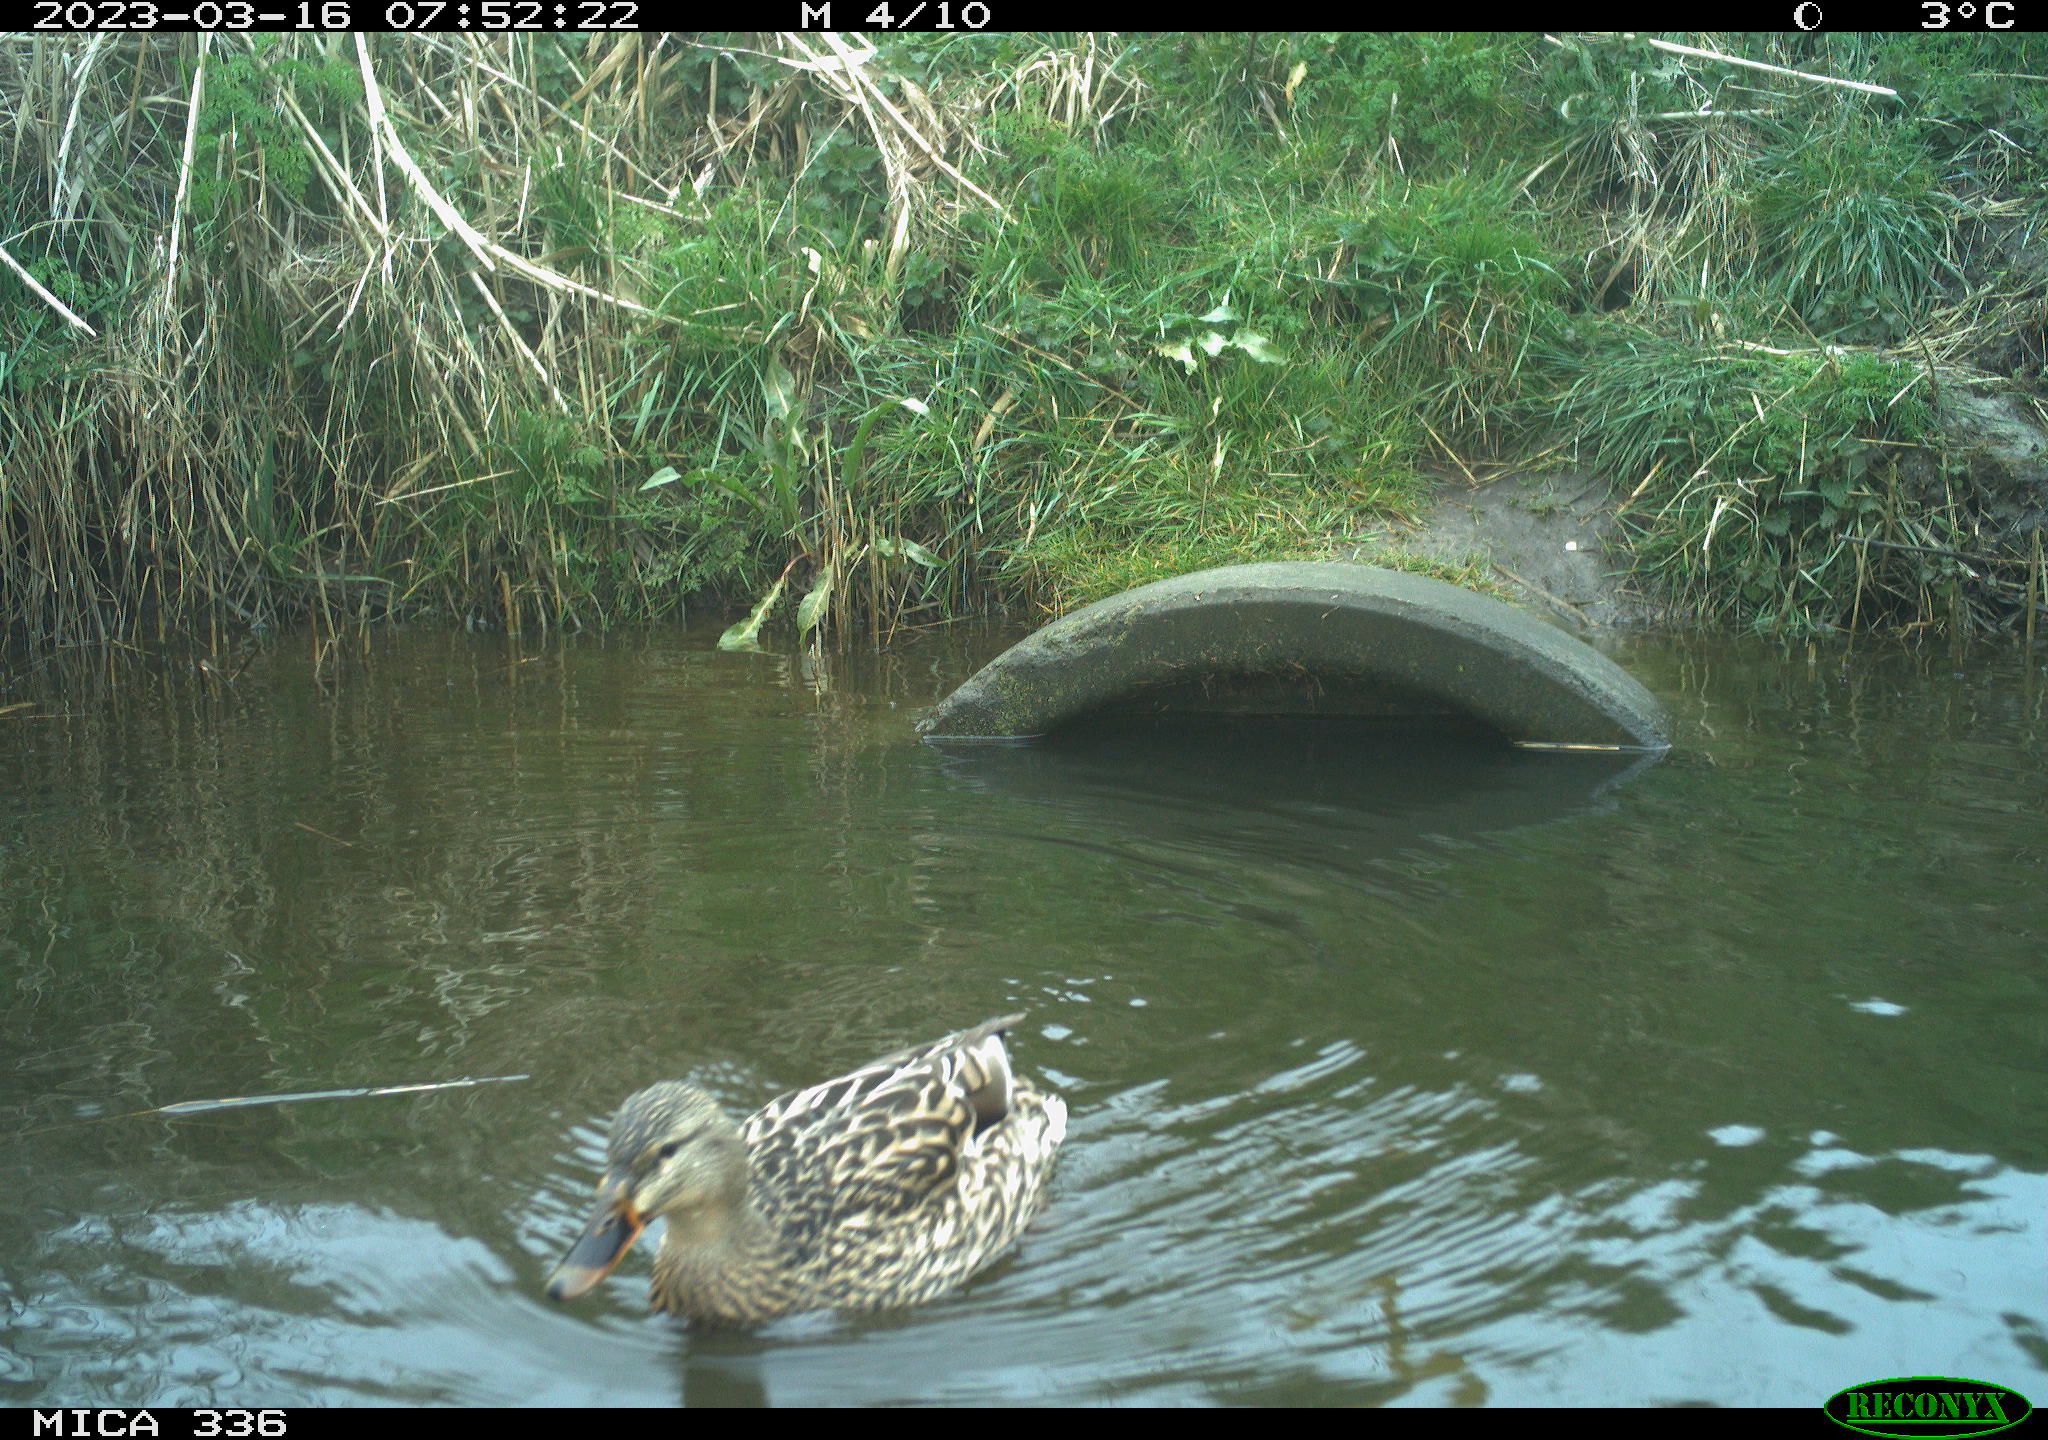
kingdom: Animalia
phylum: Chordata
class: Aves
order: Anseriformes
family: Anatidae
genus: Anas
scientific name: Anas
